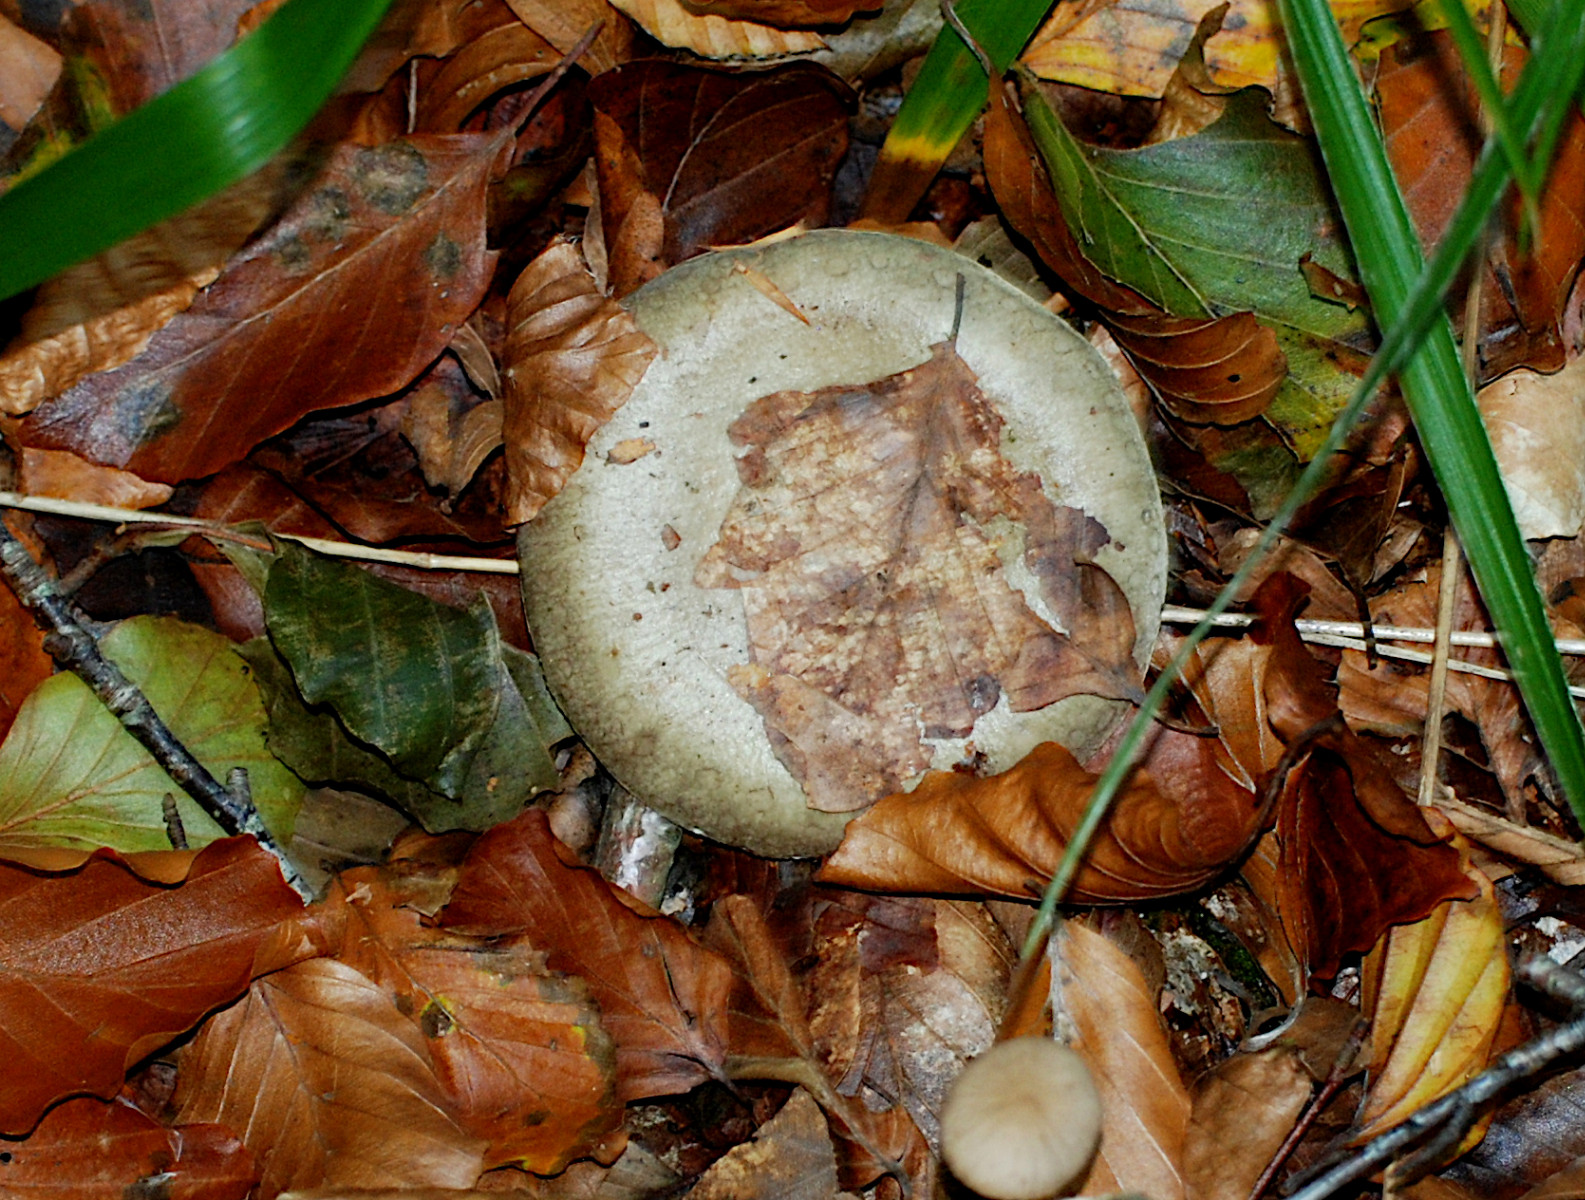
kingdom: Fungi
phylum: Basidiomycota
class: Agaricomycetes
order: Russulales
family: Russulaceae
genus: Lactarius
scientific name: Lactarius blennius
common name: dråbeplettet mælkehat
